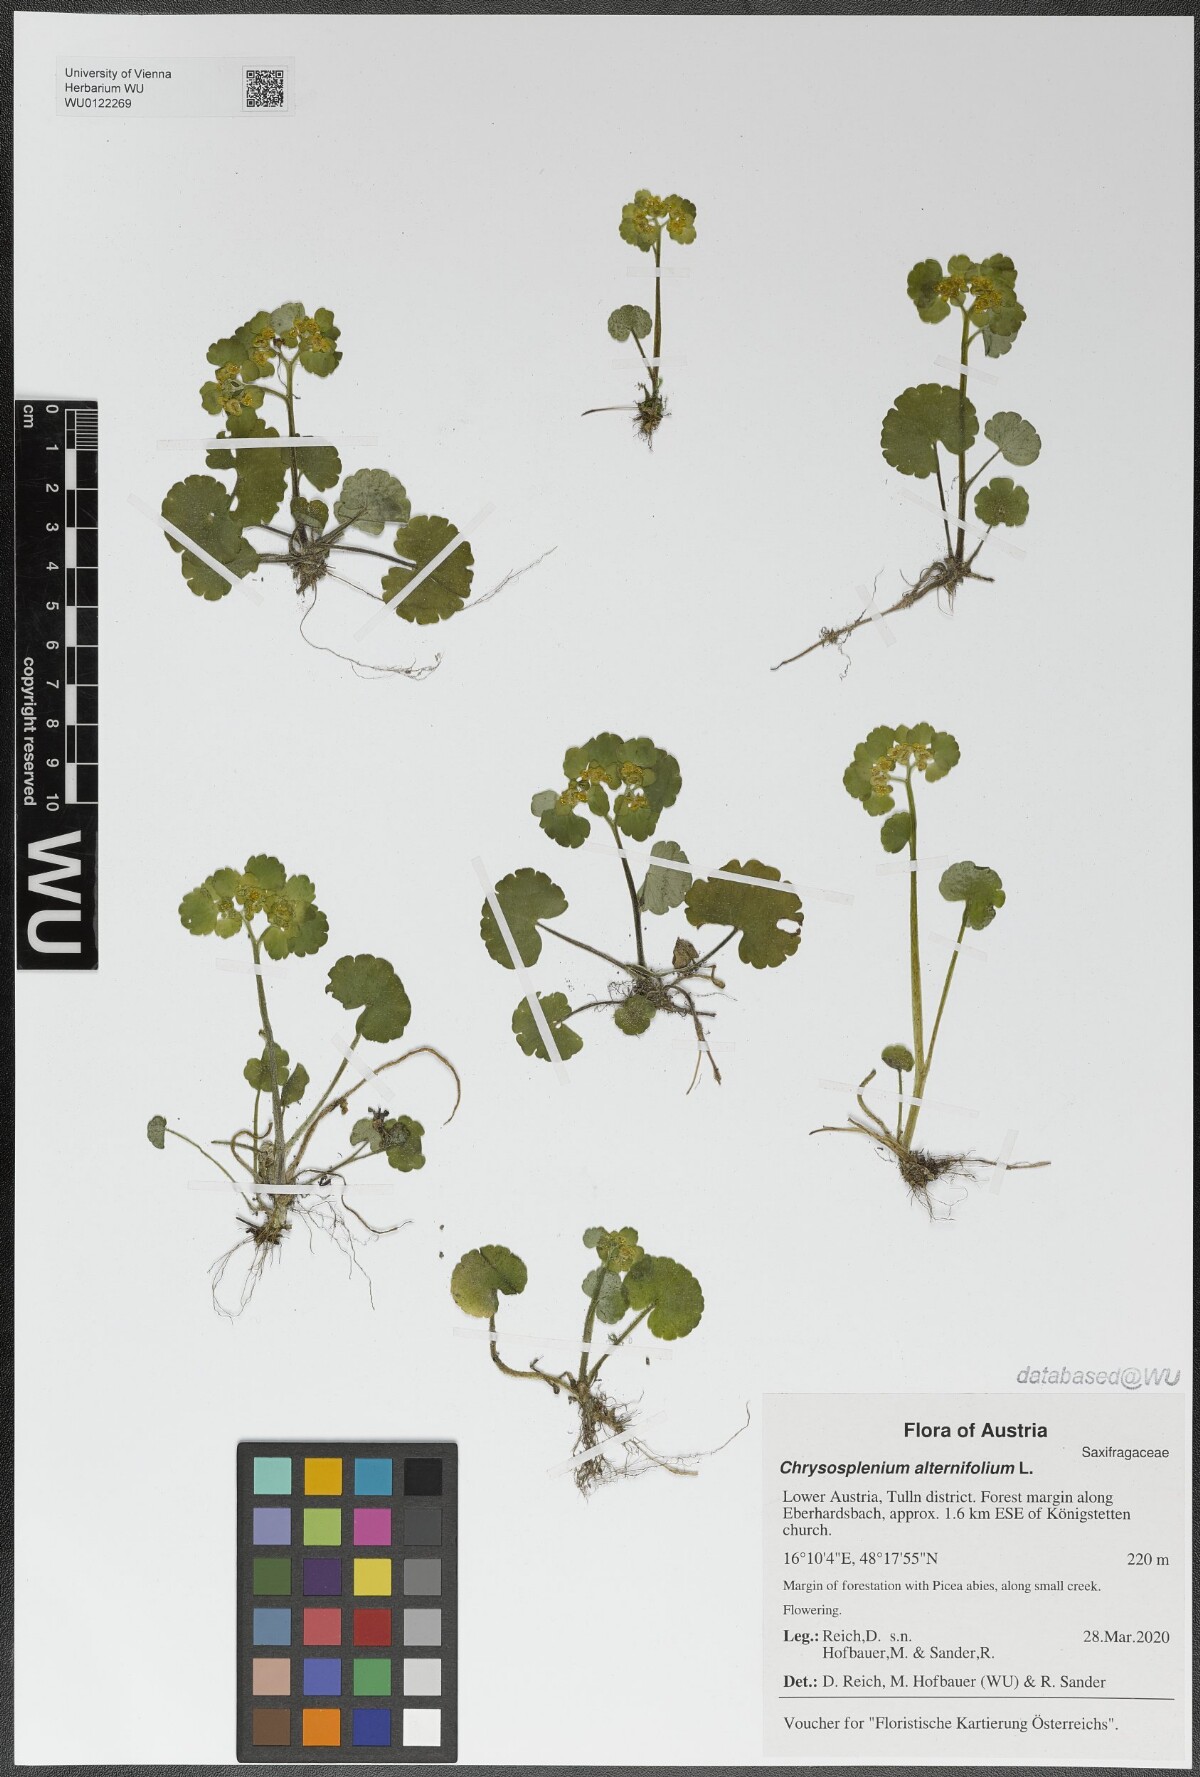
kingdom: Plantae
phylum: Tracheophyta
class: Magnoliopsida
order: Saxifragales
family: Saxifragaceae
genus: Chrysosplenium
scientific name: Chrysosplenium alternifolium
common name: Alternate-leaved golden-saxifrage
